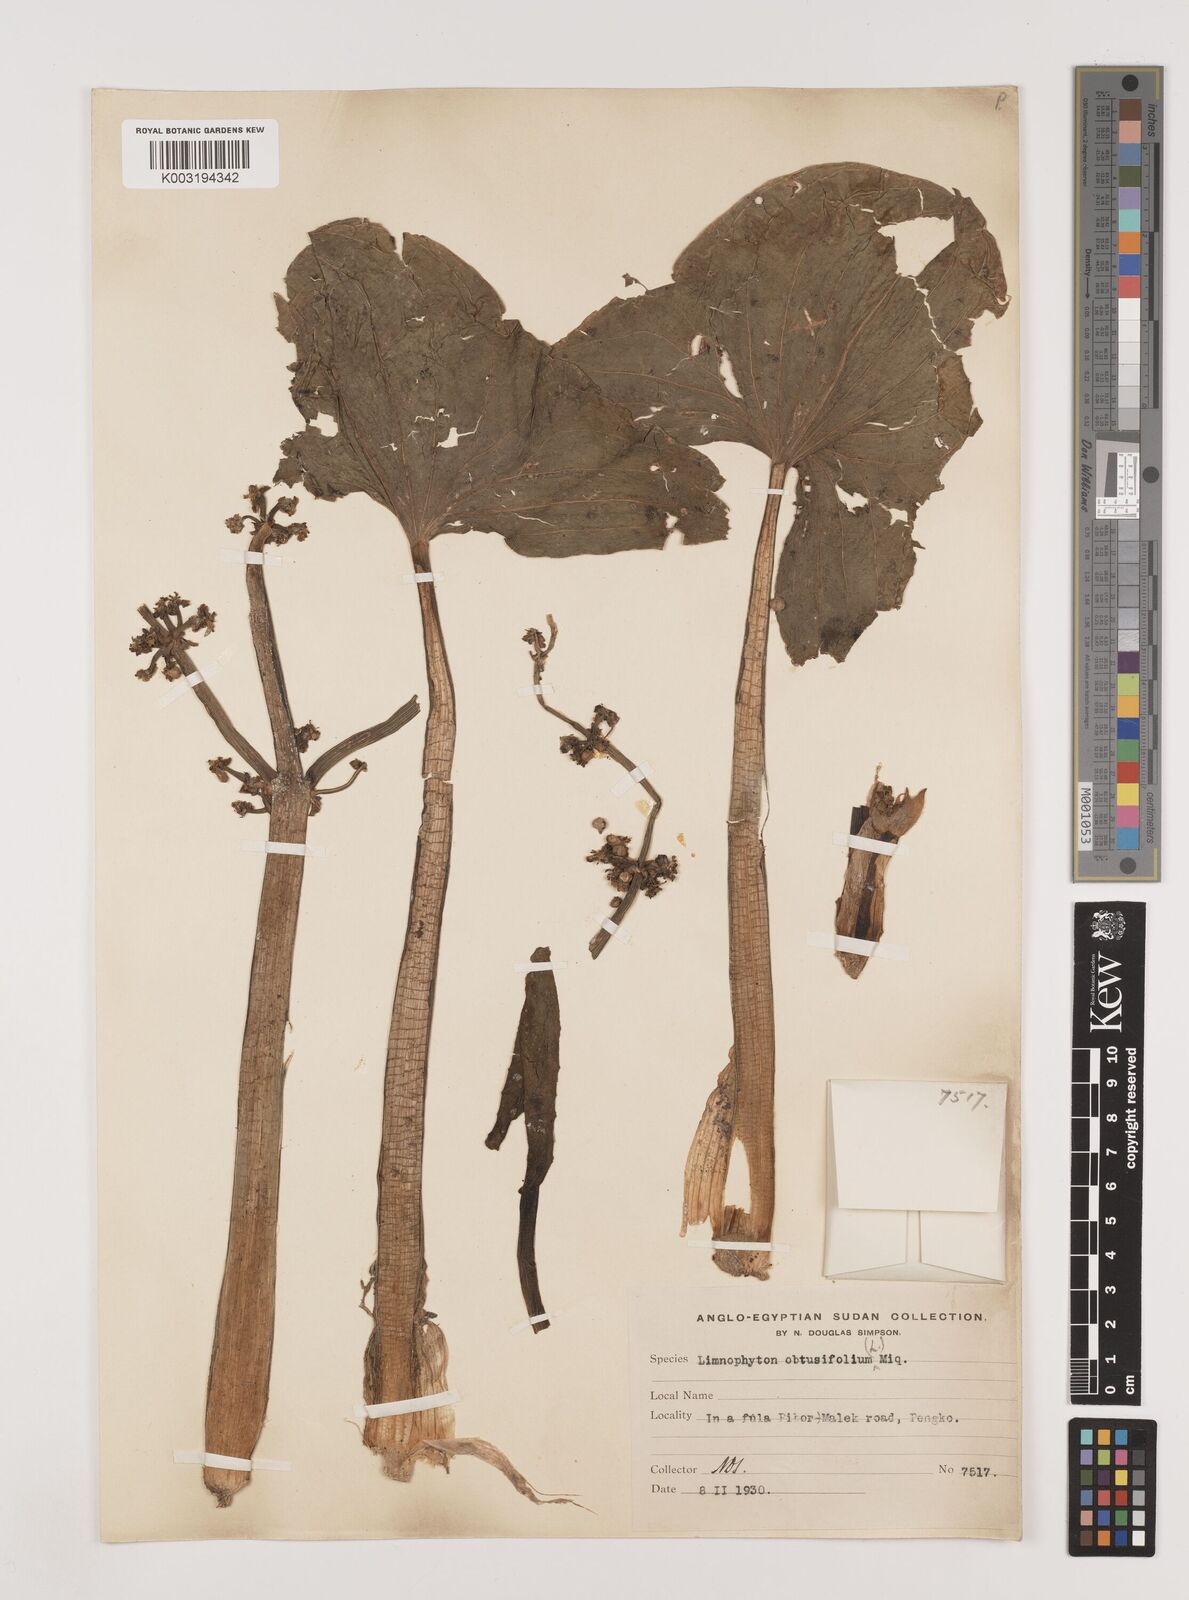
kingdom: Plantae
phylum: Tracheophyta
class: Liliopsida
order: Alismatales
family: Alismataceae
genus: Limnophyton
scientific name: Limnophyton obtusifolium
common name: Arrow head
